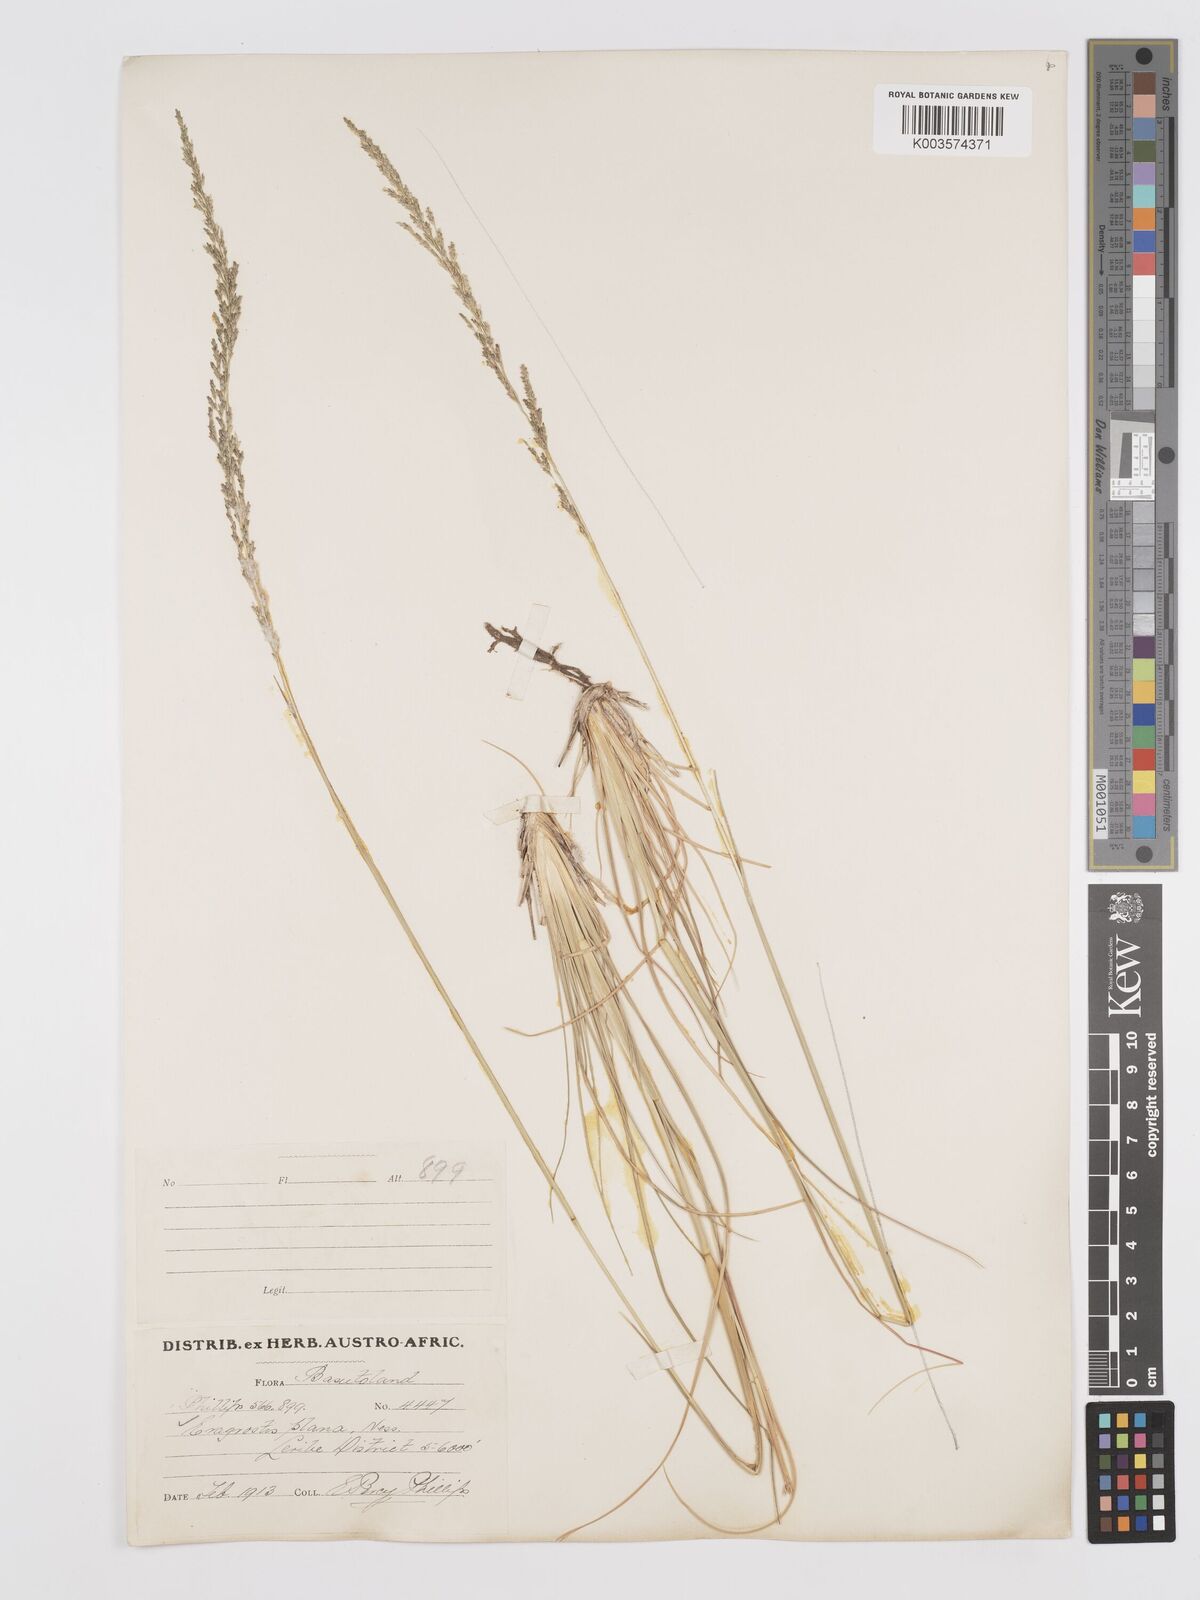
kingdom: Plantae
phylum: Tracheophyta
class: Liliopsida
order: Poales
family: Poaceae
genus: Eragrostis
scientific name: Eragrostis plana
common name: South african lovegrass
